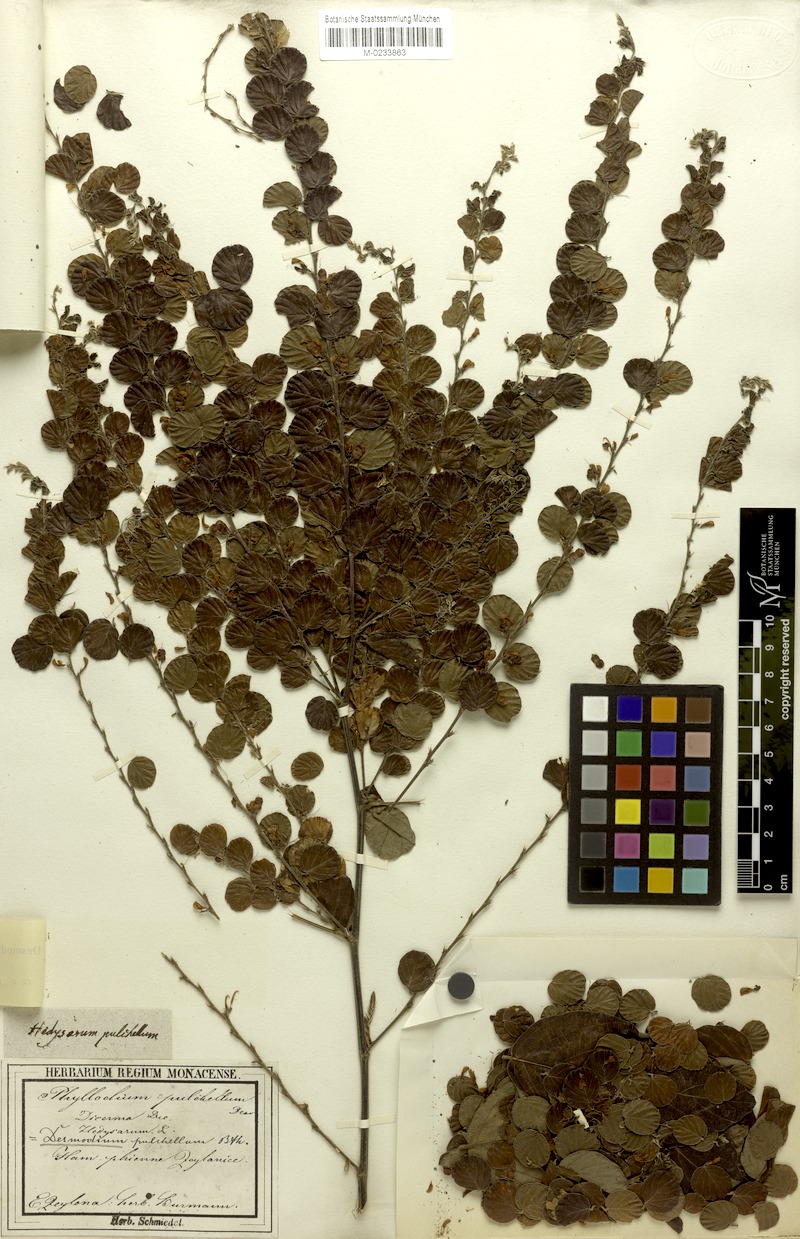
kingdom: Plantae
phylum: Tracheophyta
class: Magnoliopsida
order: Fabales
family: Fabaceae
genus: Phyllodium
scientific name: Phyllodium pulchellum
